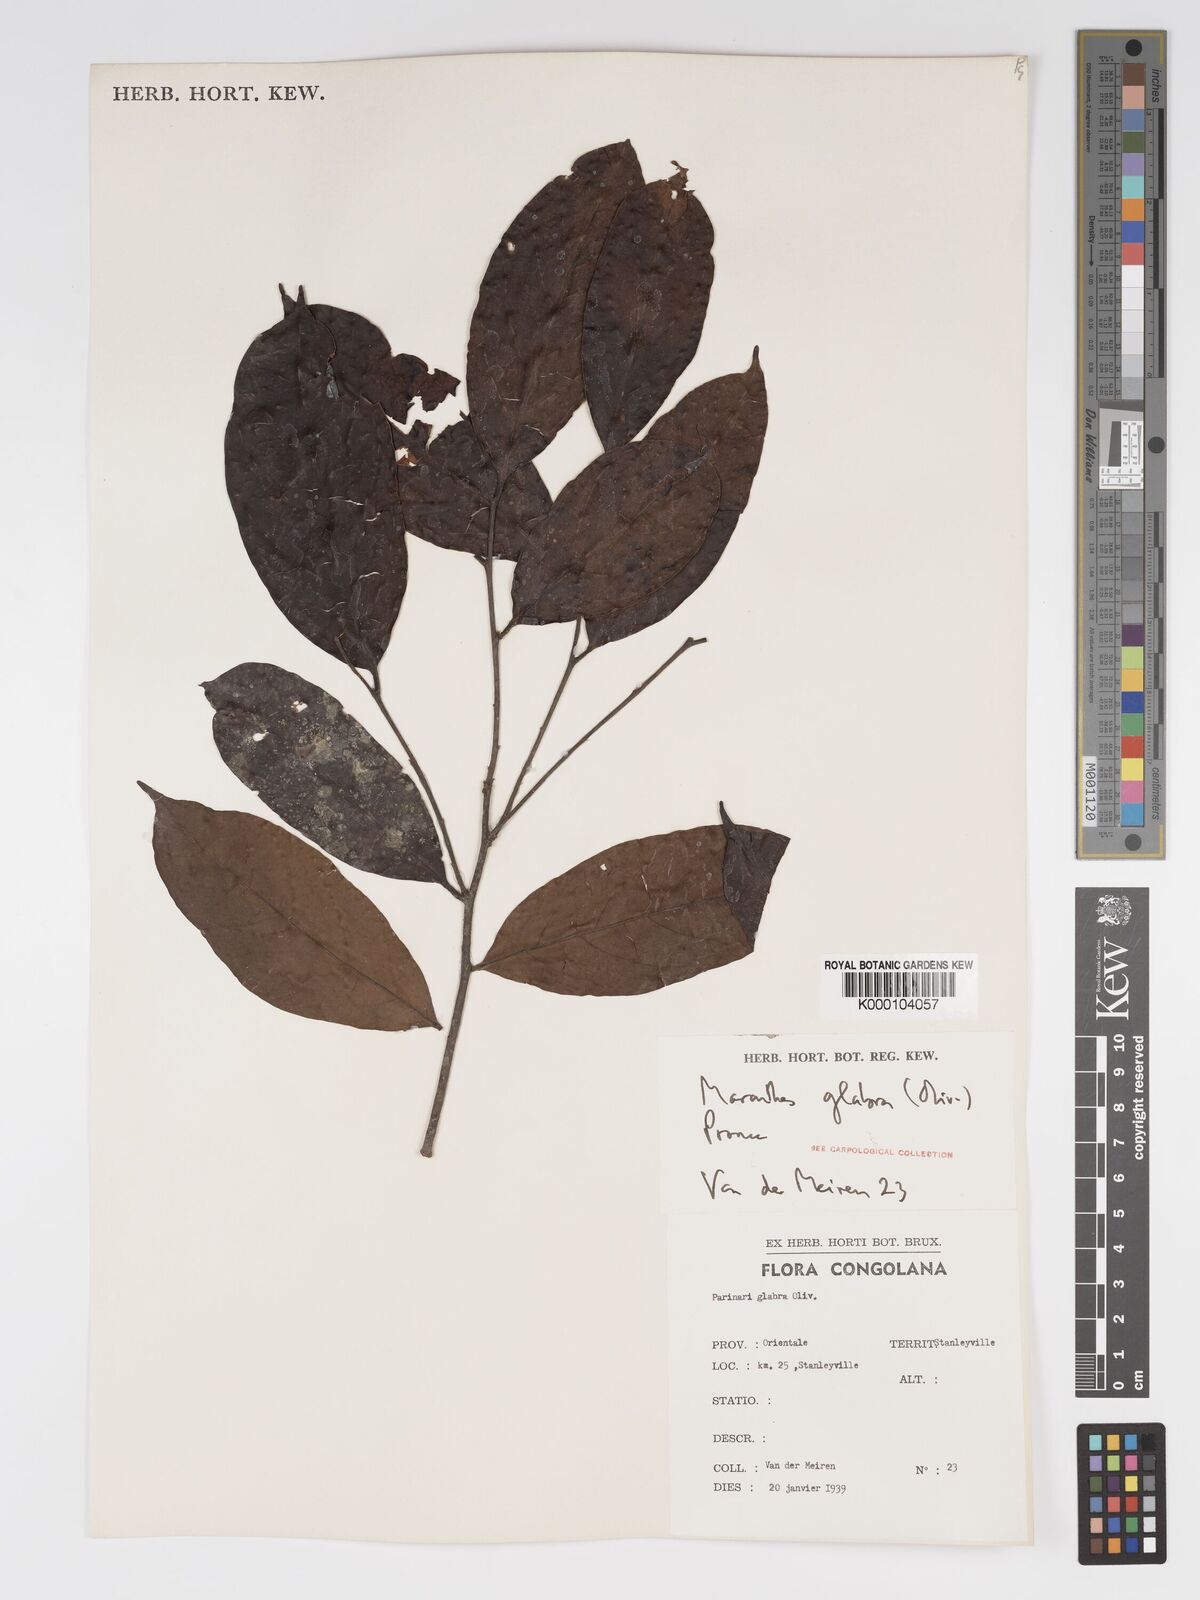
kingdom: Plantae
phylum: Tracheophyta
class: Magnoliopsida
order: Malpighiales
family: Chrysobalanaceae
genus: Maranthes
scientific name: Maranthes glabra
